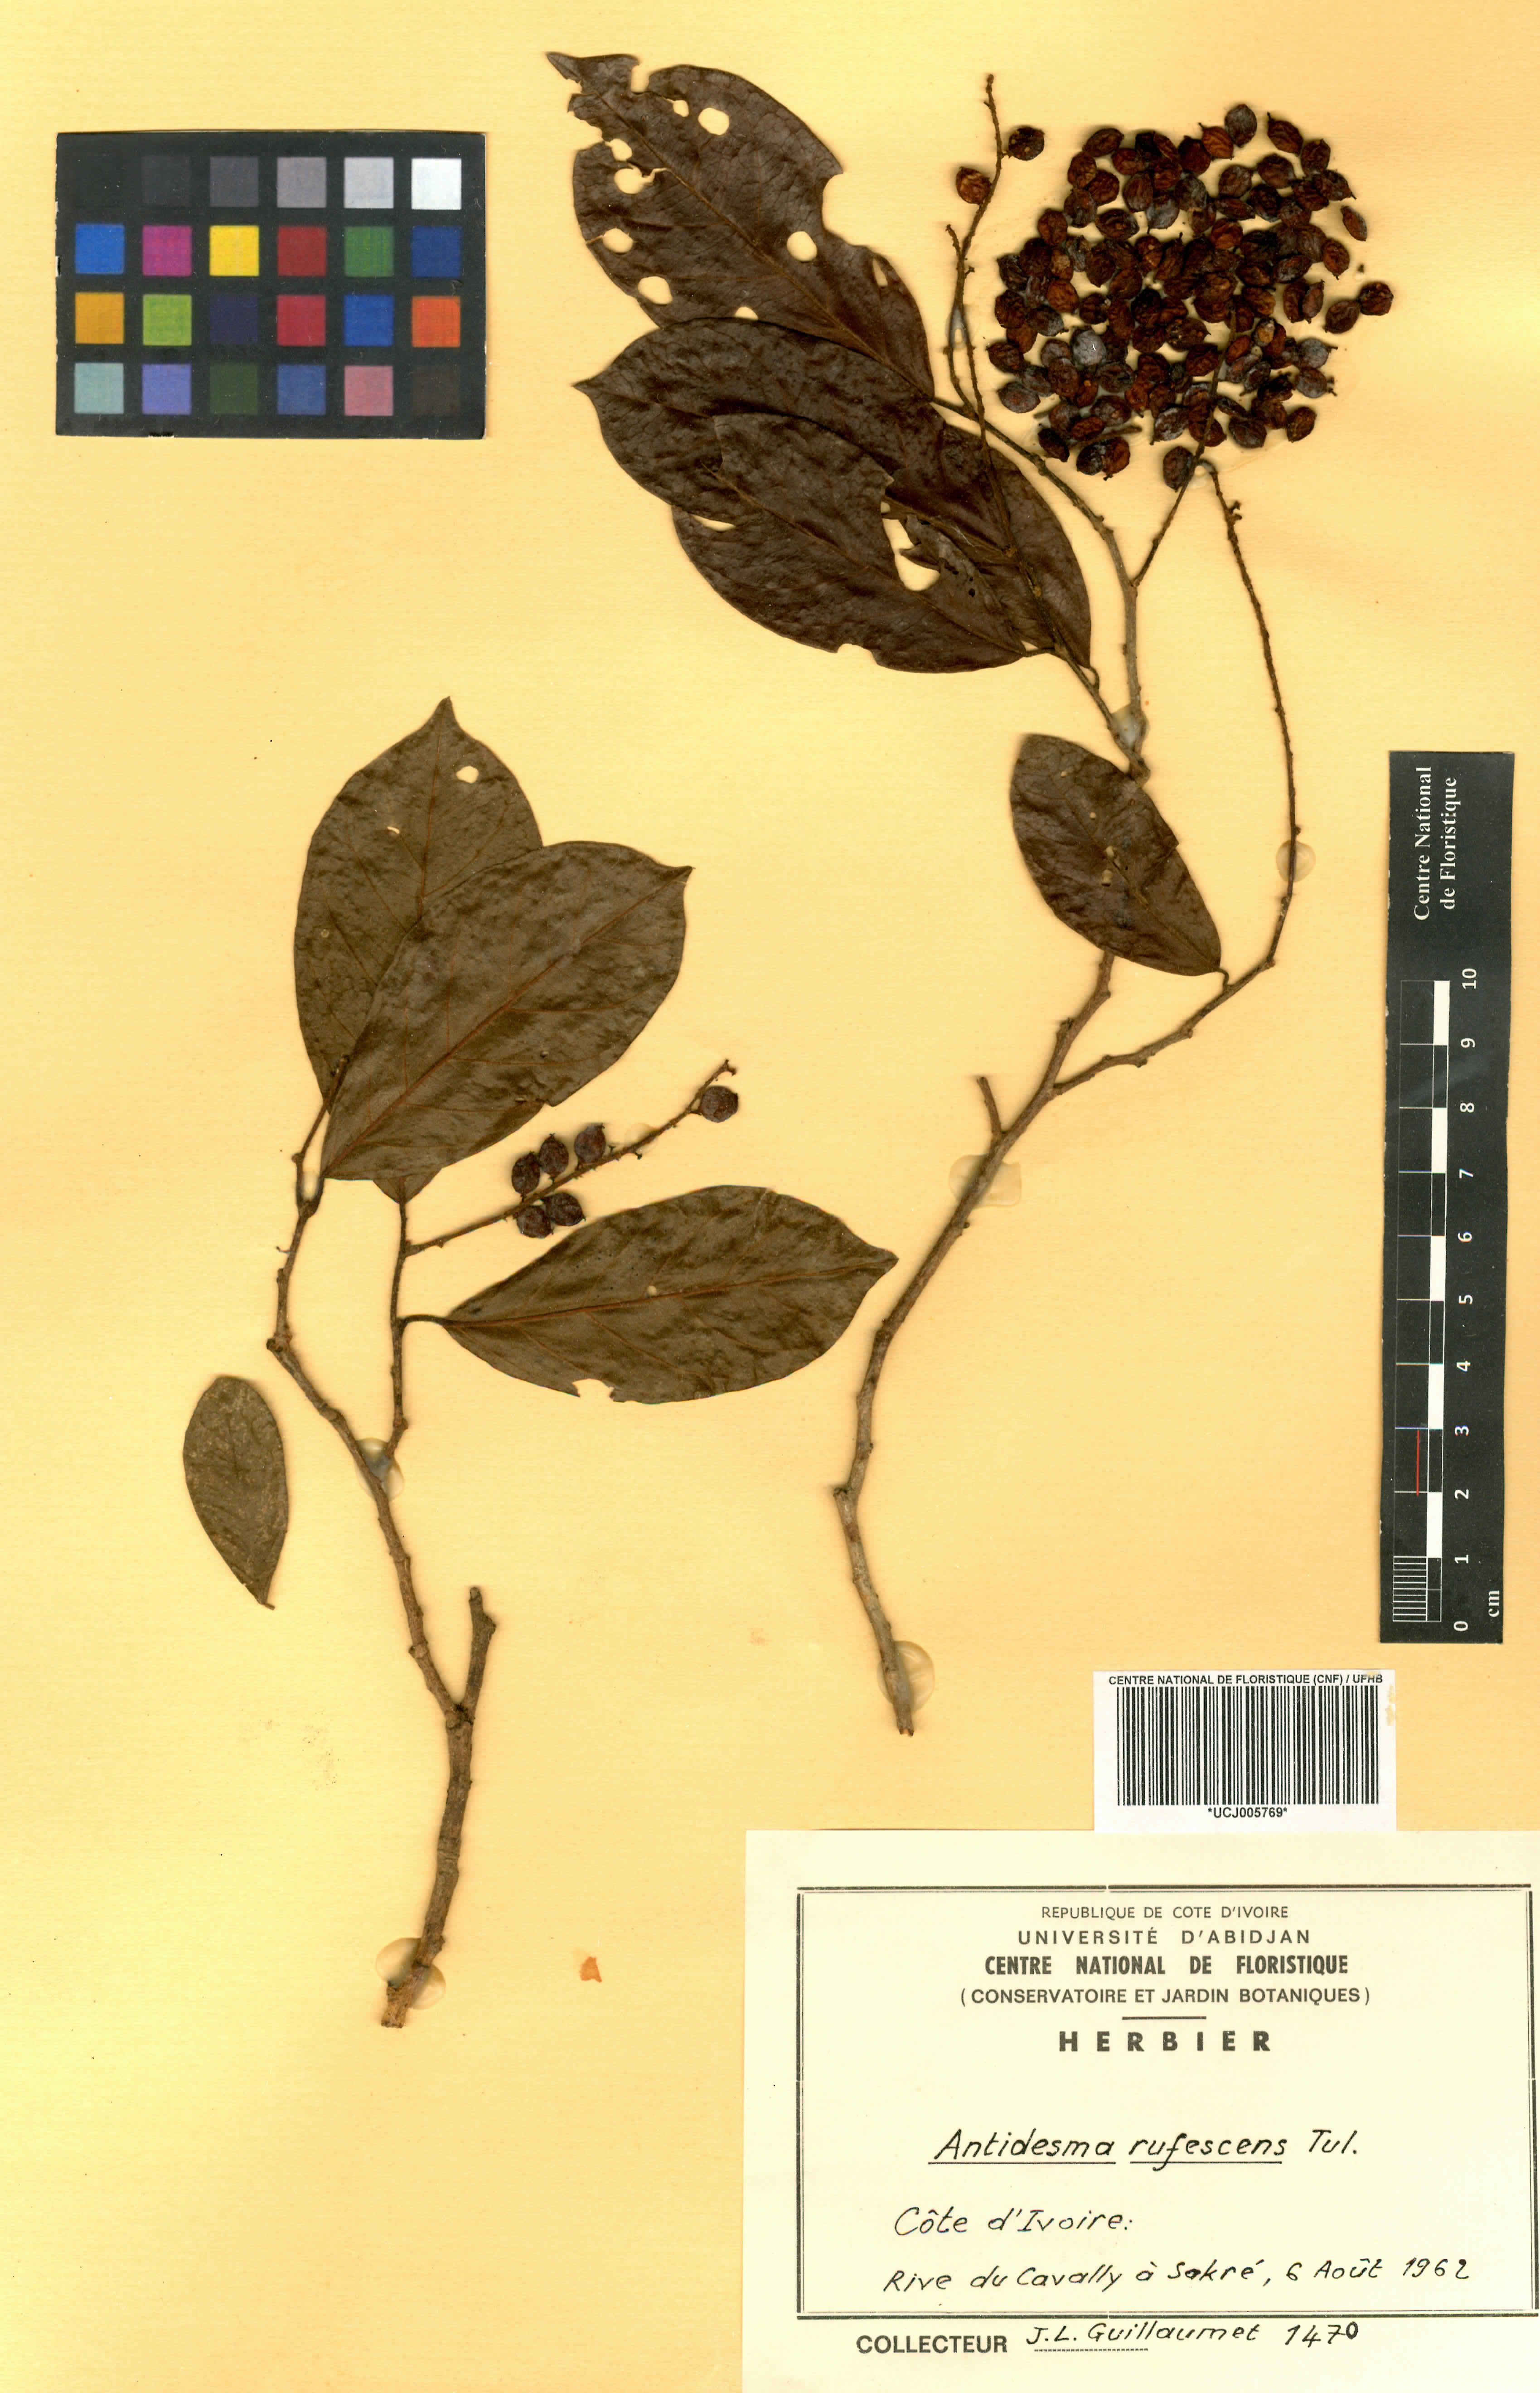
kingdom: Plantae
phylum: Tracheophyta
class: Magnoliopsida
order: Malpighiales
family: Phyllanthaceae
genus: Antidesma
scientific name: Antidesma rufescens
